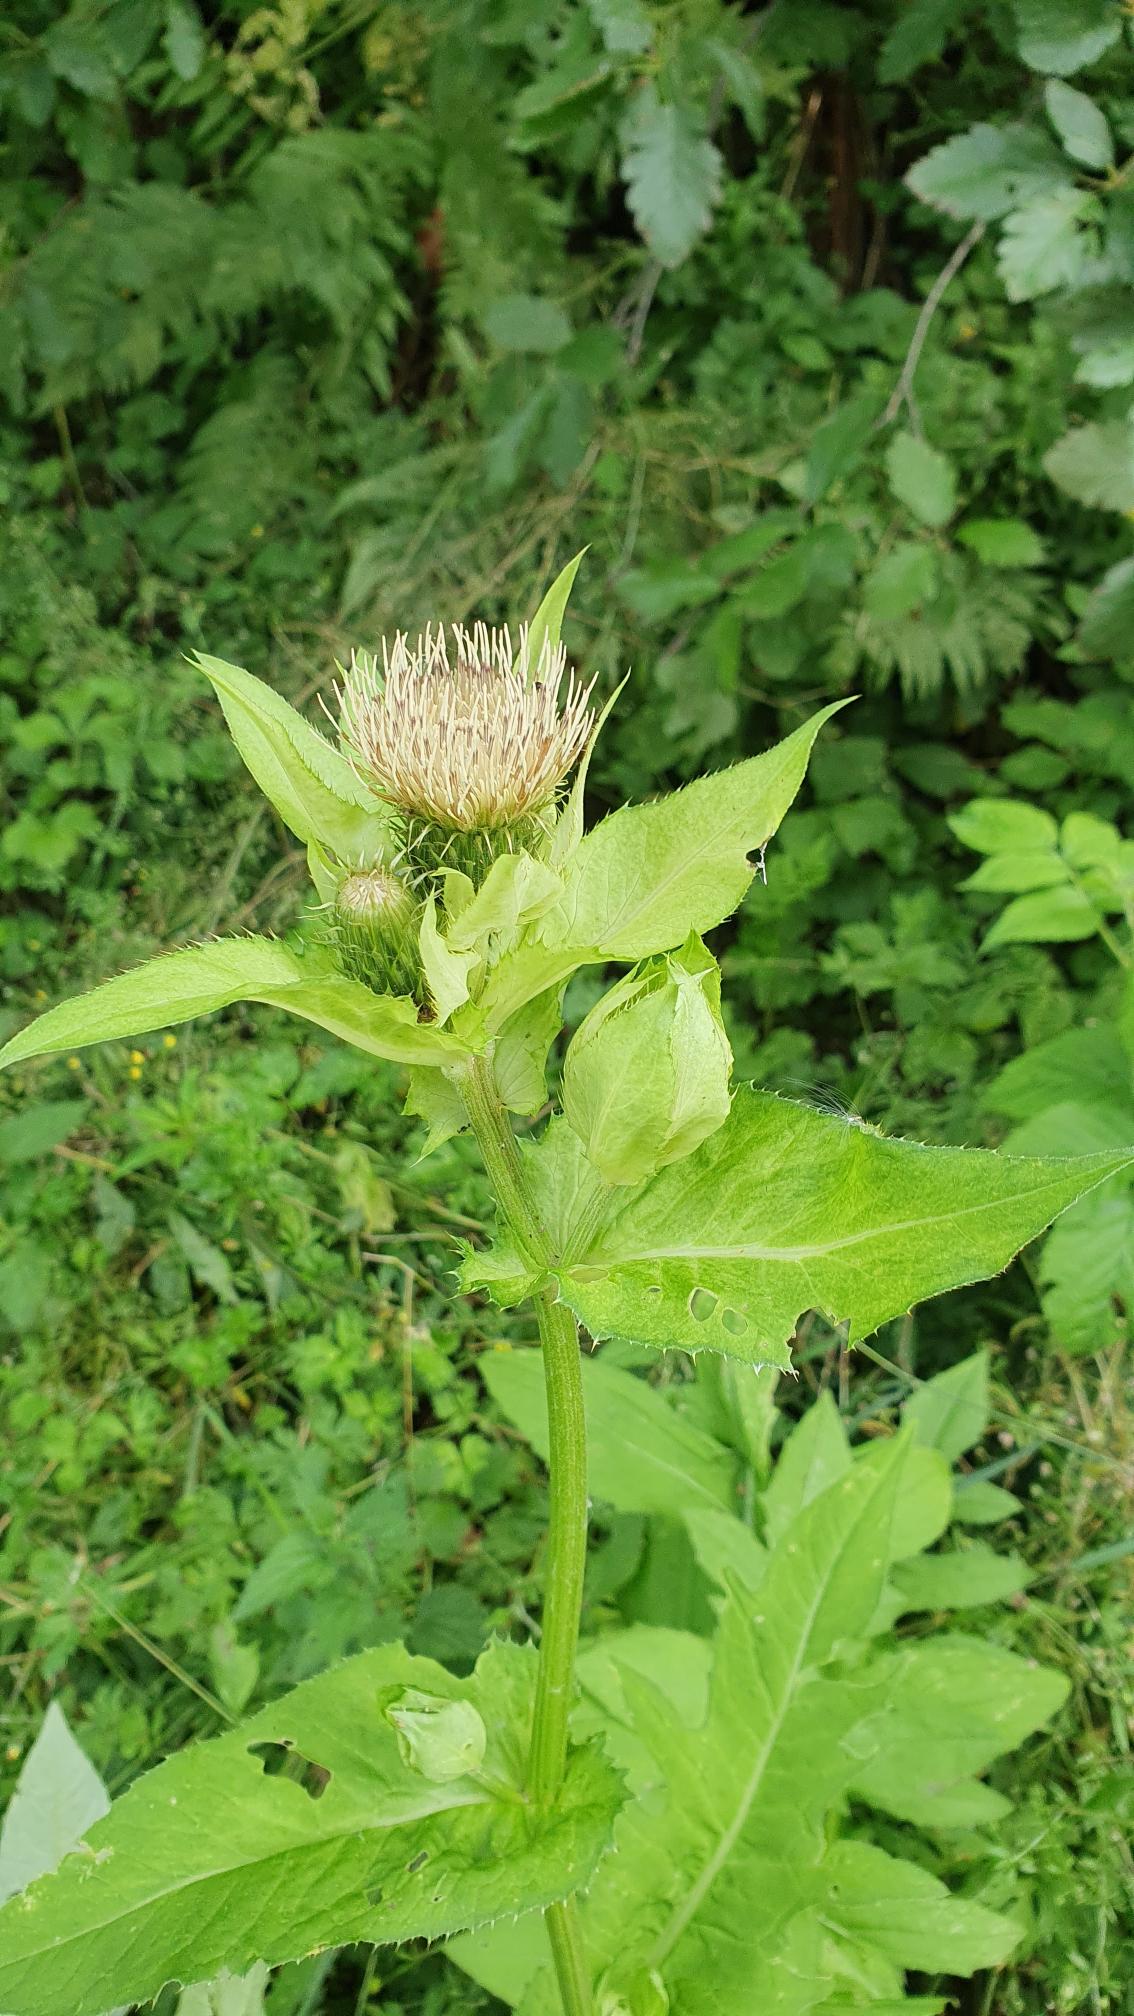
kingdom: Plantae
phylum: Tracheophyta
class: Magnoliopsida
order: Asterales
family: Asteraceae
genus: Cirsium
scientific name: Cirsium oleraceum
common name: Kål-tidsel
